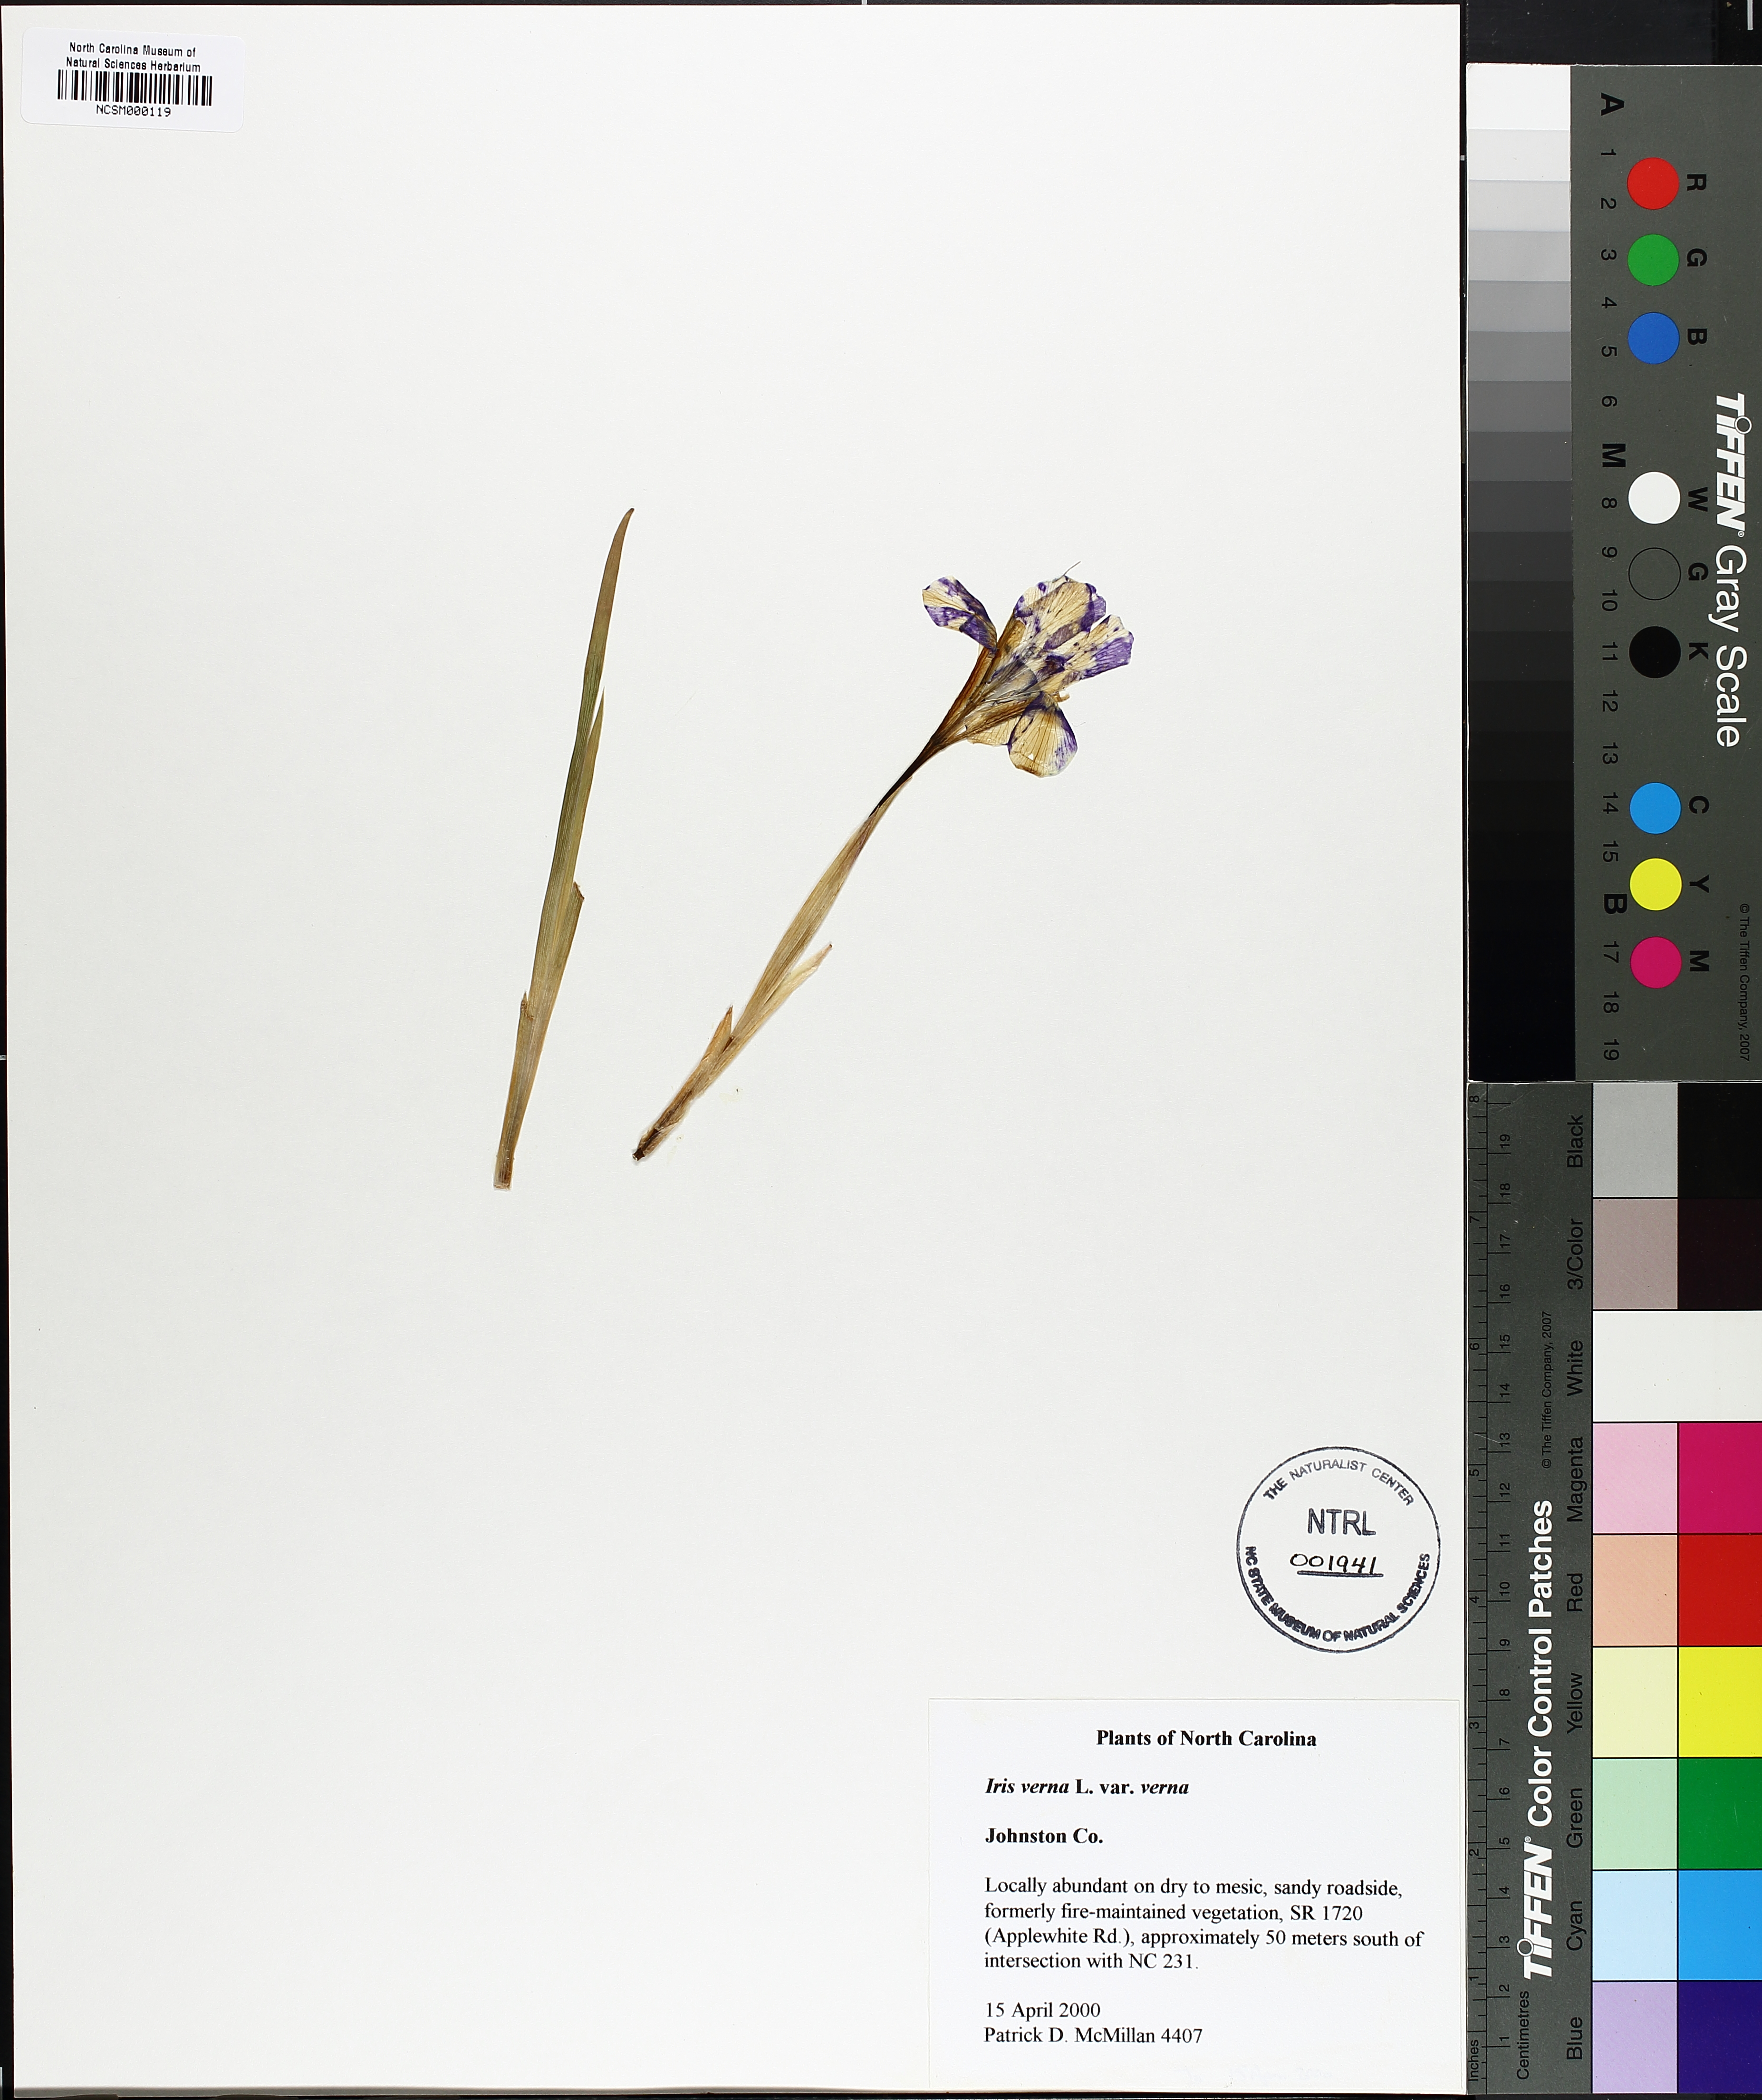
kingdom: Plantae
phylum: Tracheophyta
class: Liliopsida
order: Asparagales
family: Iridaceae
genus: Iris
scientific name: Iris verna
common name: Dwarf iris
